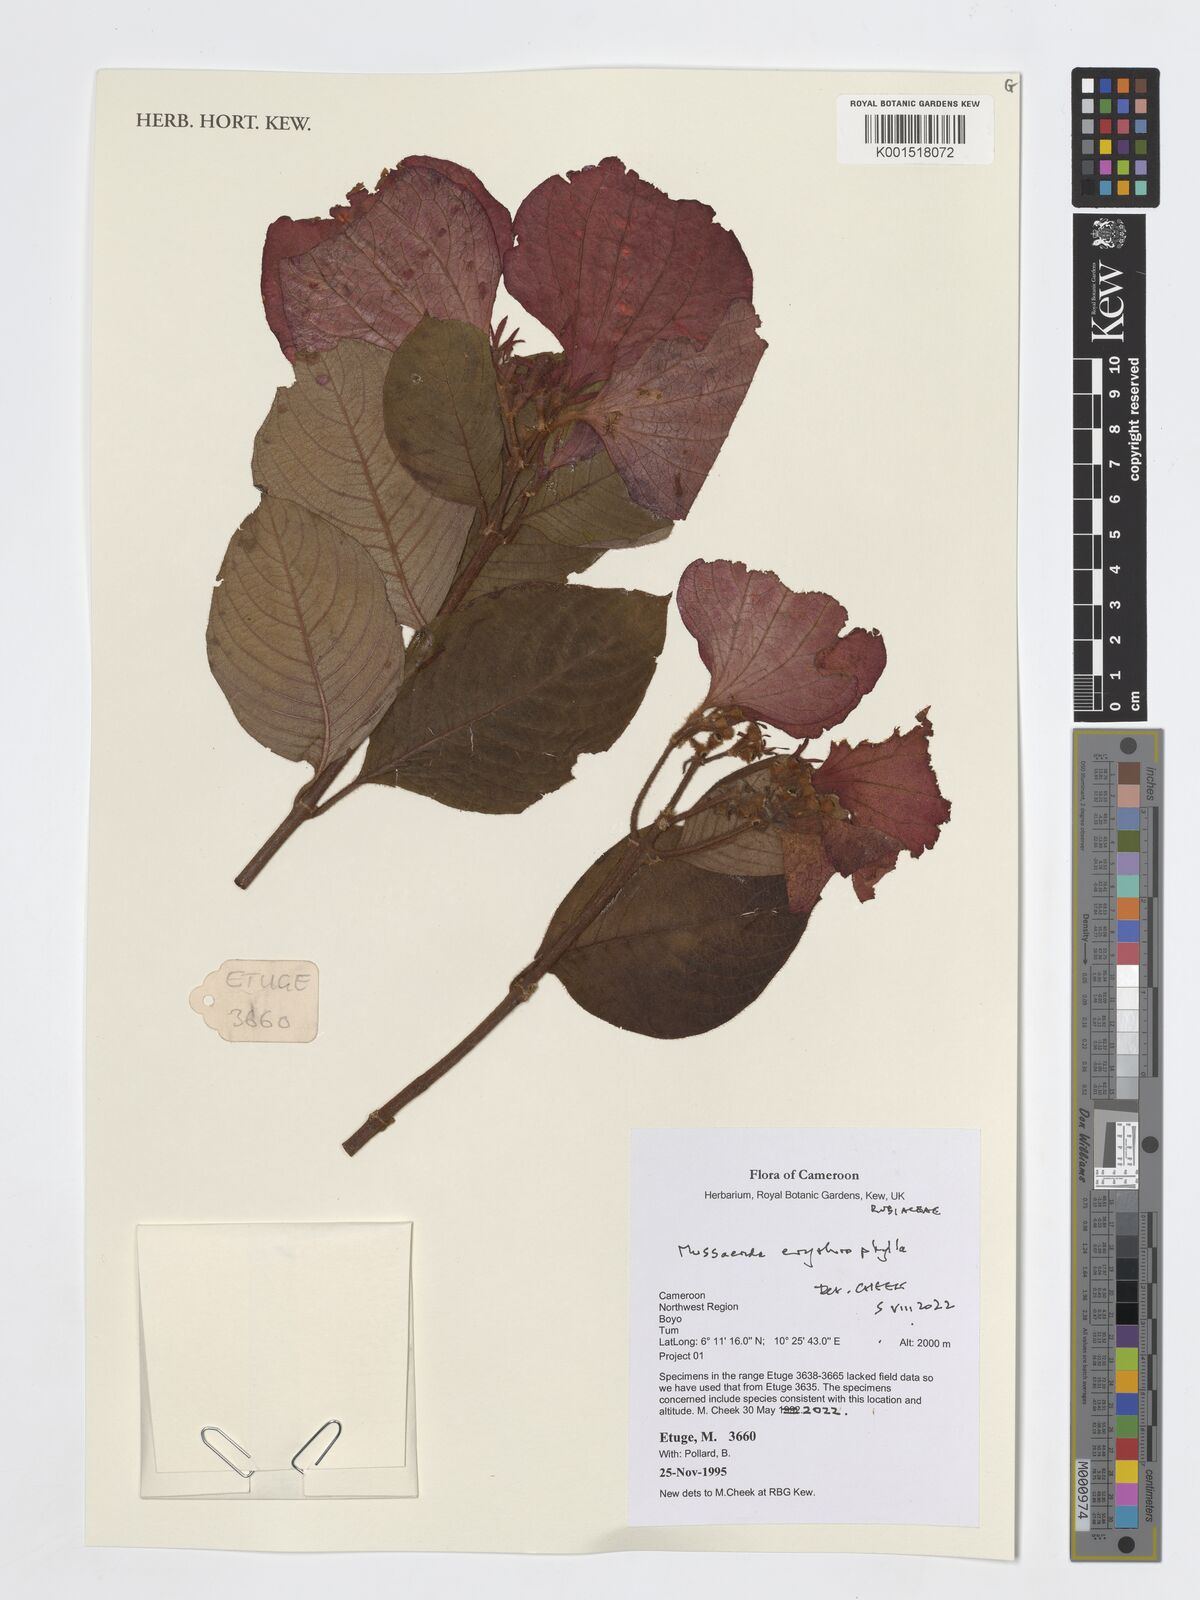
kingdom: Plantae
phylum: Tracheophyta
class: Magnoliopsida
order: Gentianales
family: Rubiaceae
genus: Mussaenda
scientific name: Mussaenda erythrophylla
